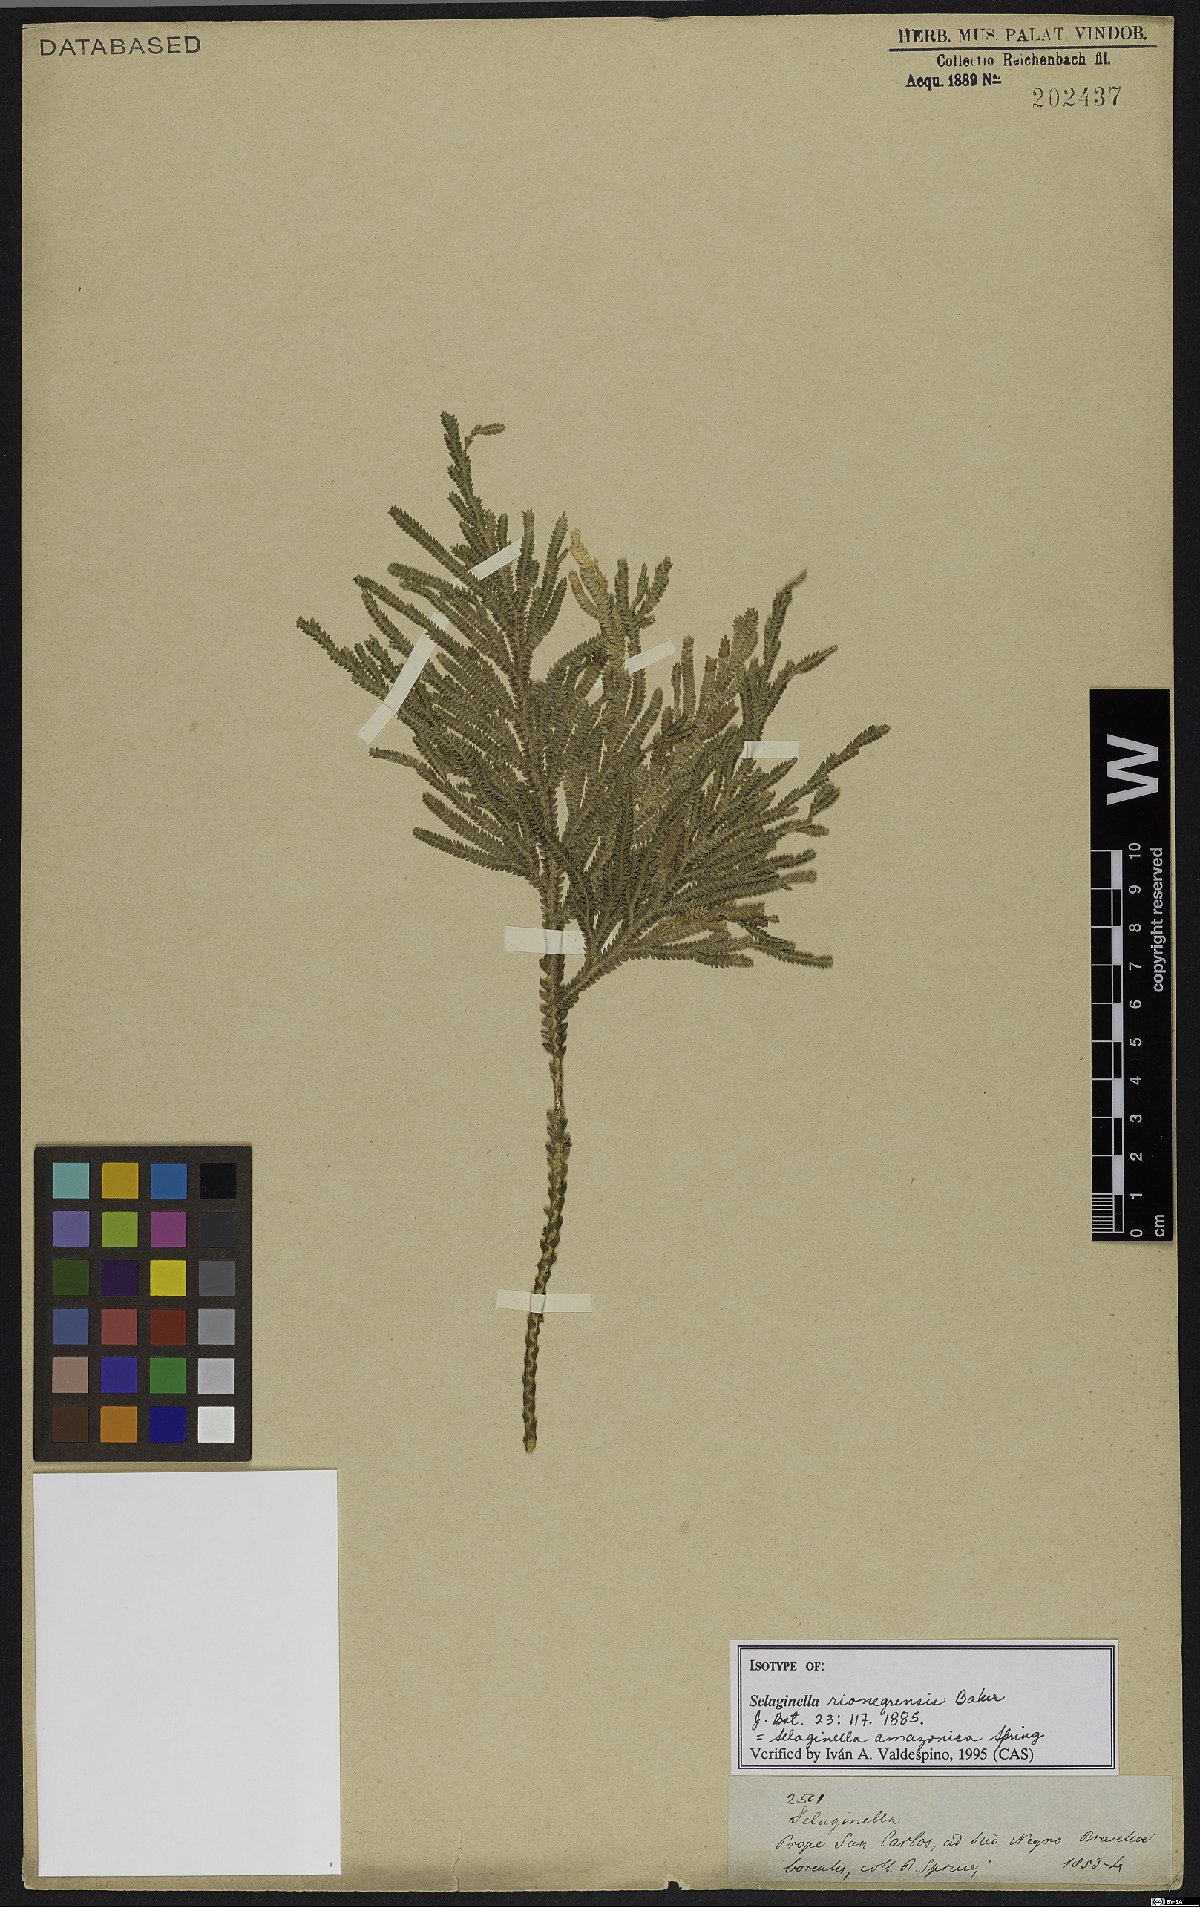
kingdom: Plantae
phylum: Tracheophyta
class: Lycopodiopsida
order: Selaginellales
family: Selaginellaceae
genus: Selaginella
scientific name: Selaginella amazonica
